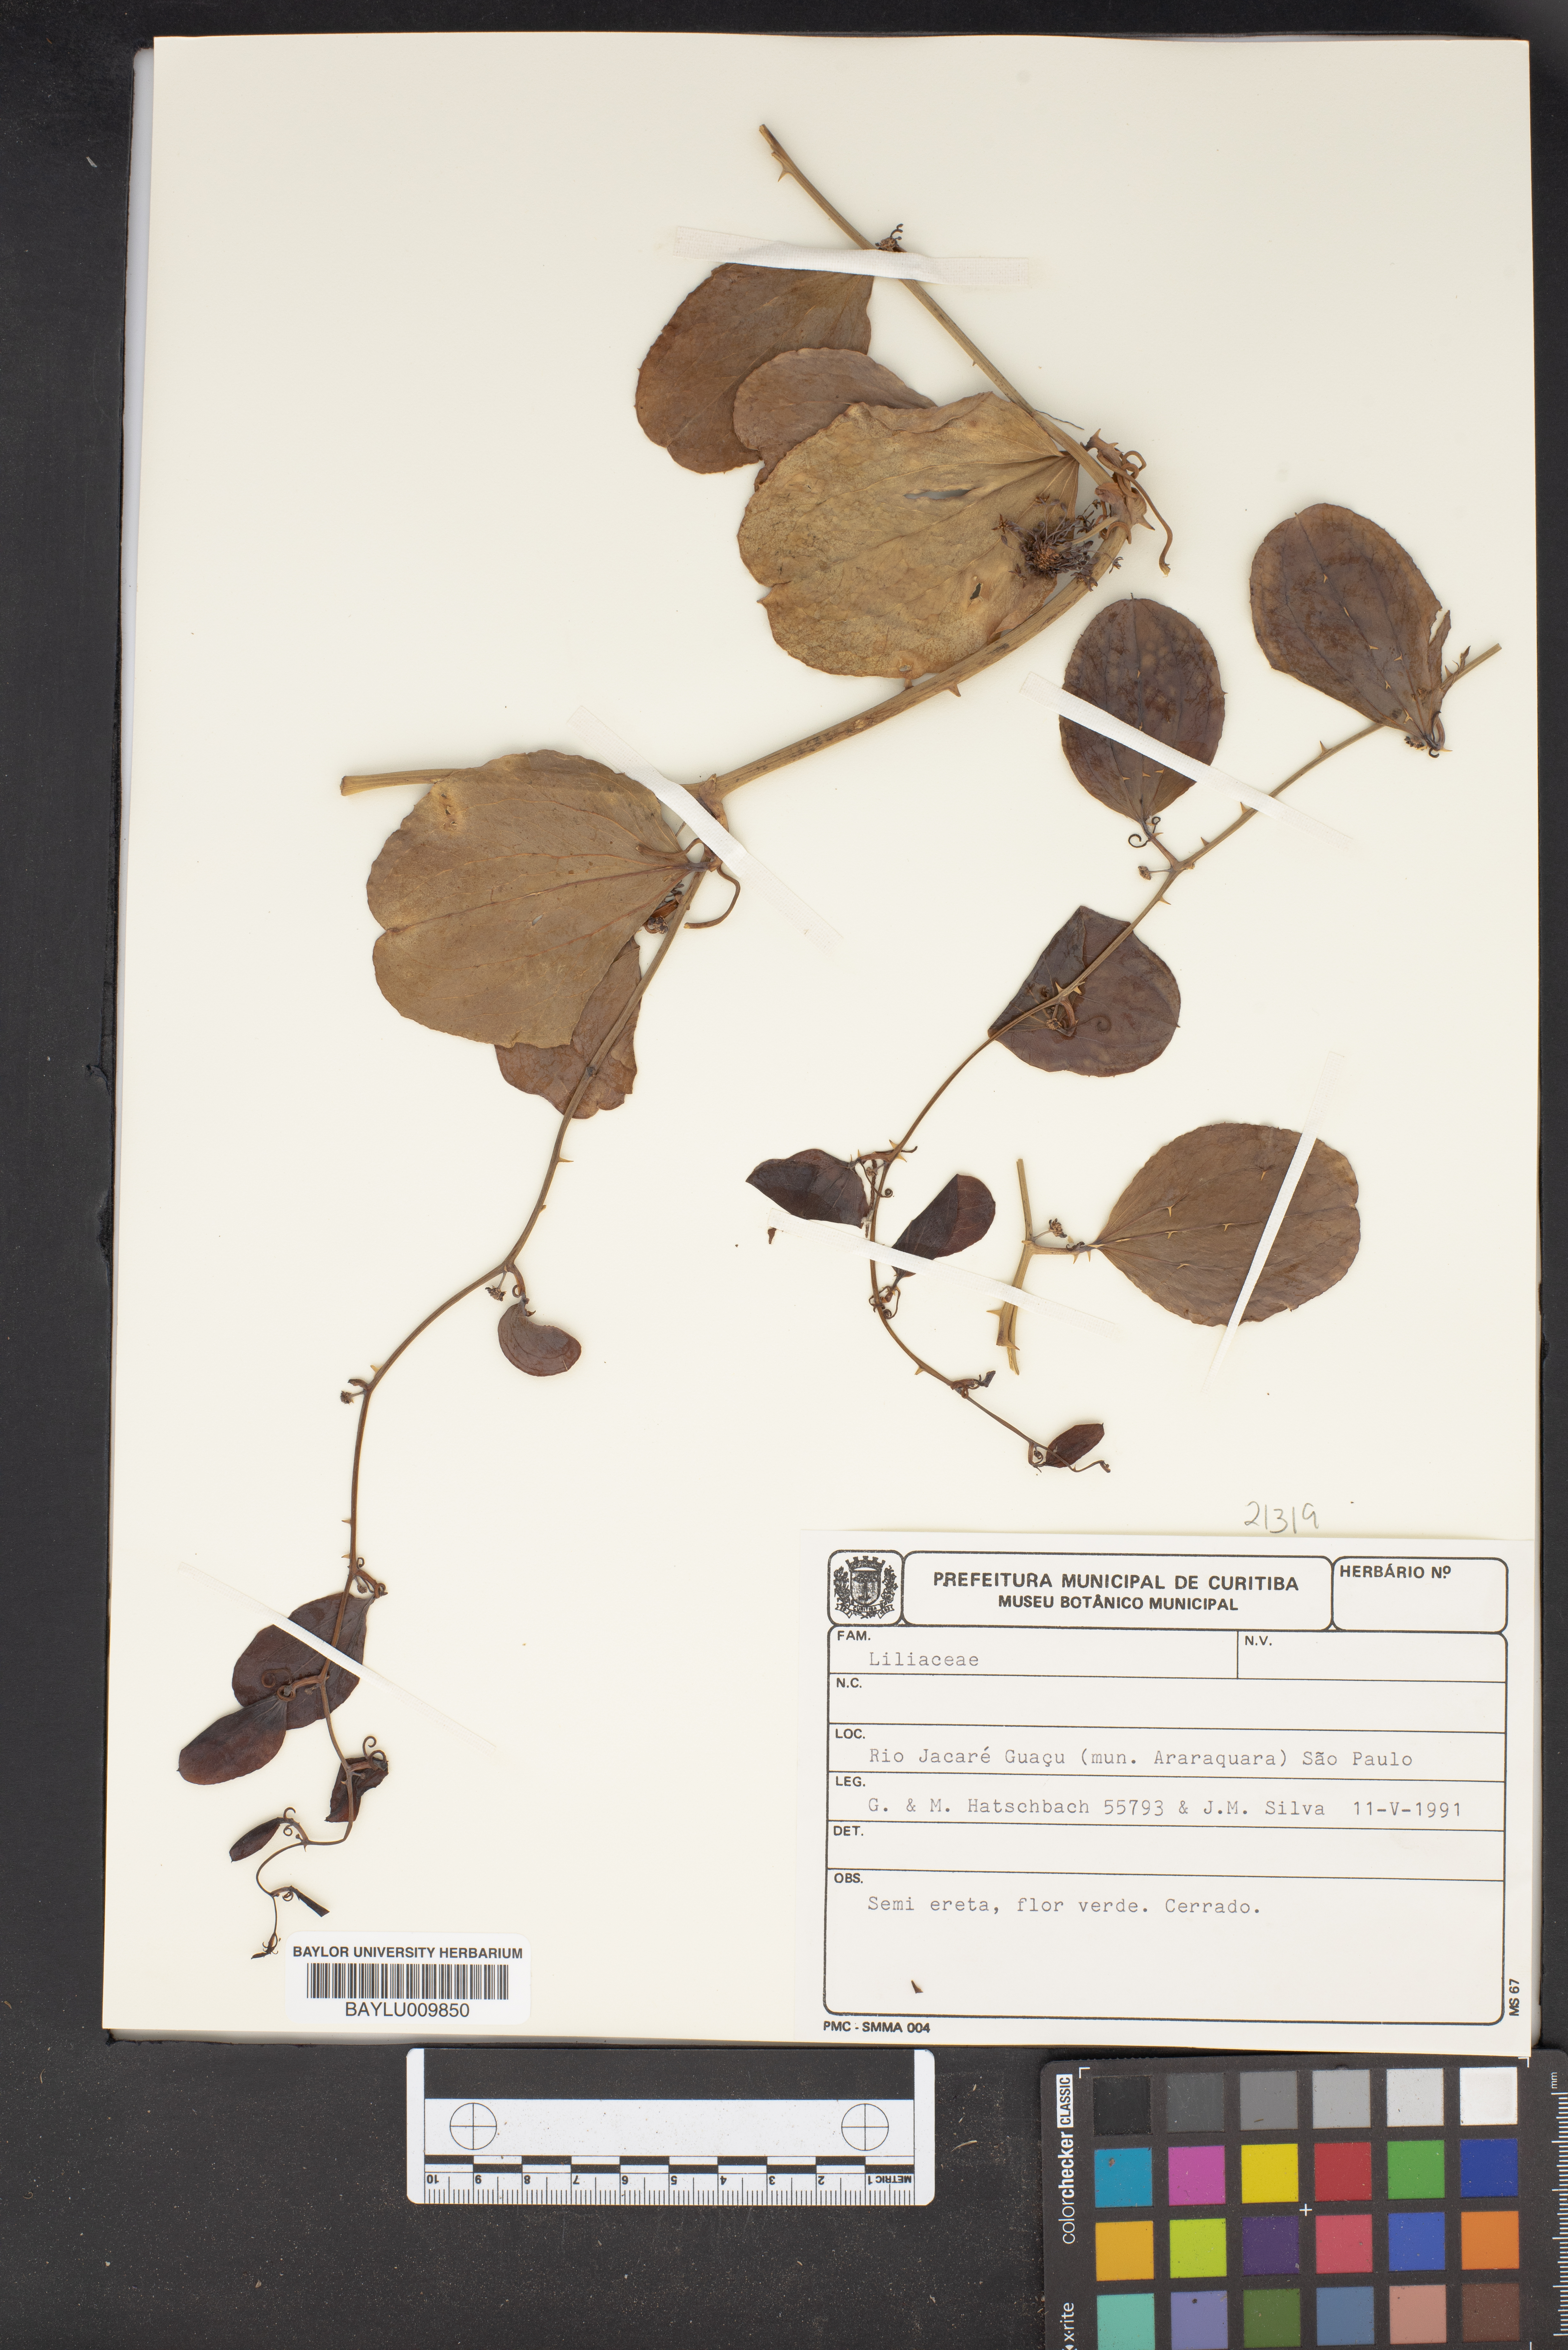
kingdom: Plantae
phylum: Tracheophyta
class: Liliopsida
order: Liliales
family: Liliaceae
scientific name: Liliaceae
